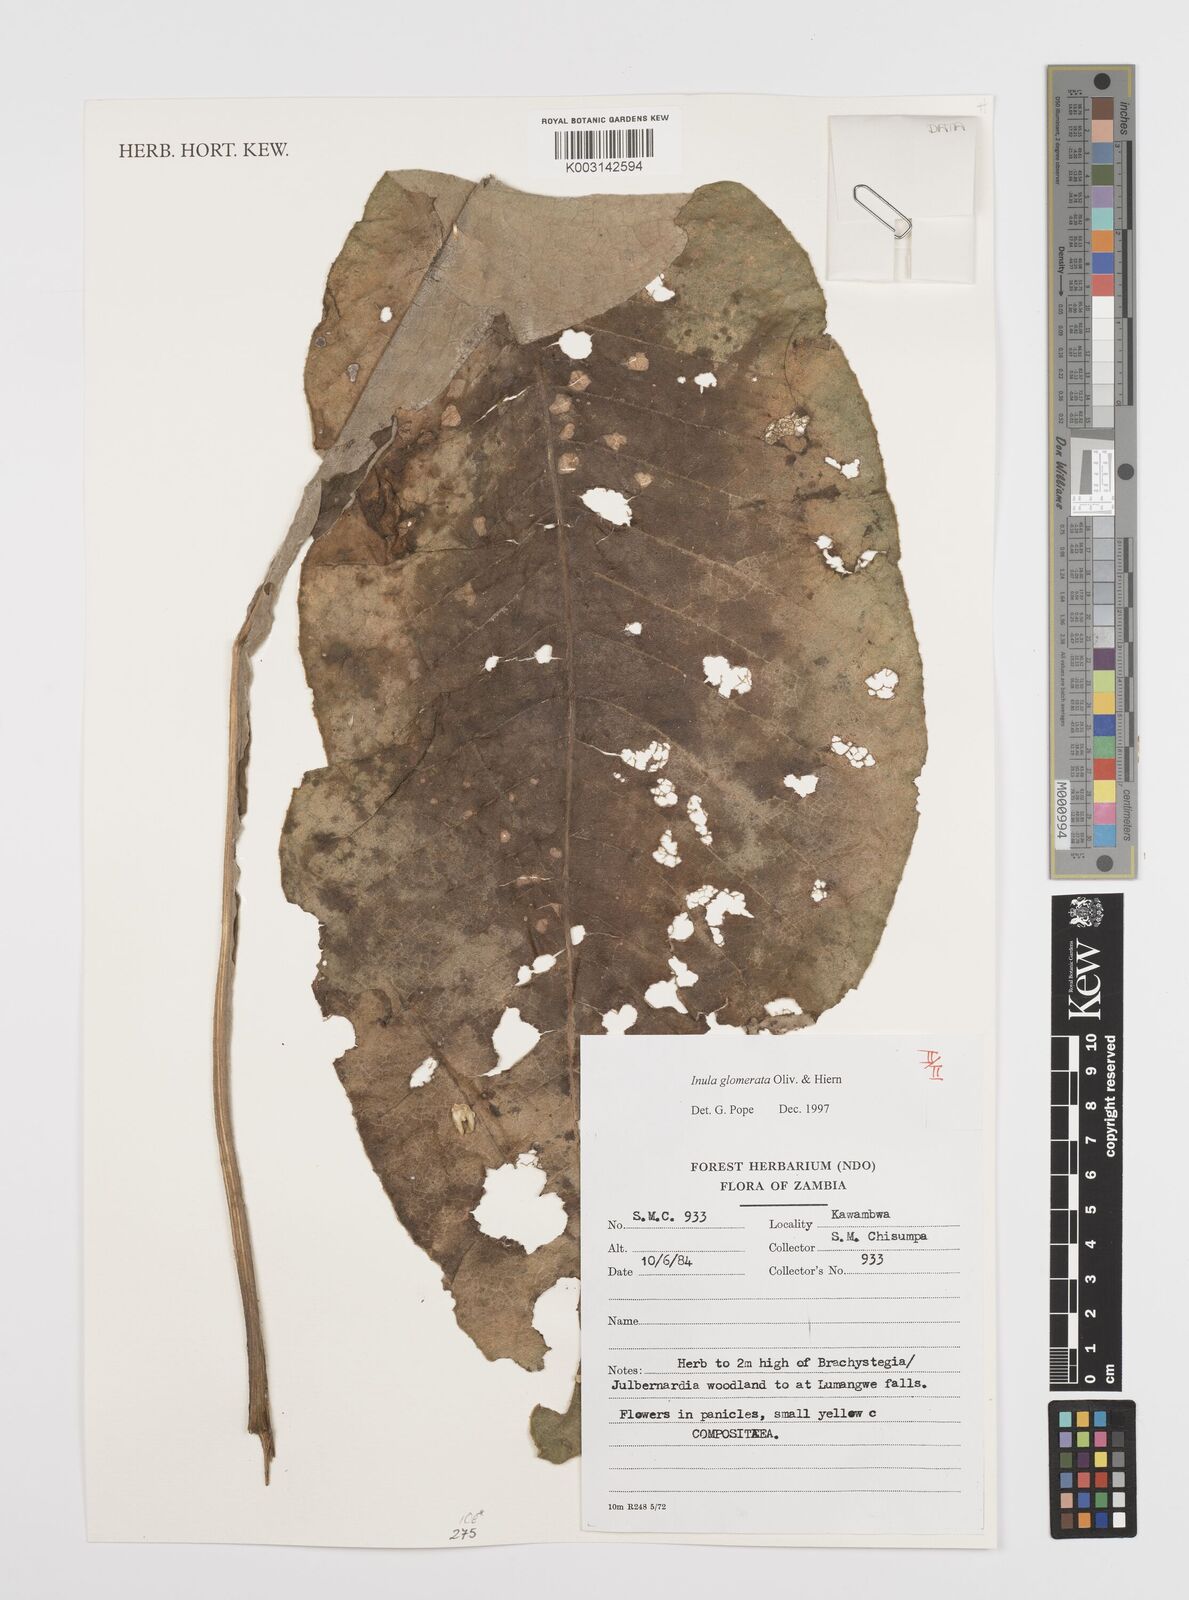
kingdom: Plantae
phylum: Tracheophyta
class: Magnoliopsida
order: Asterales
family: Asteraceae
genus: Inula
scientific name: Inula glomerata
